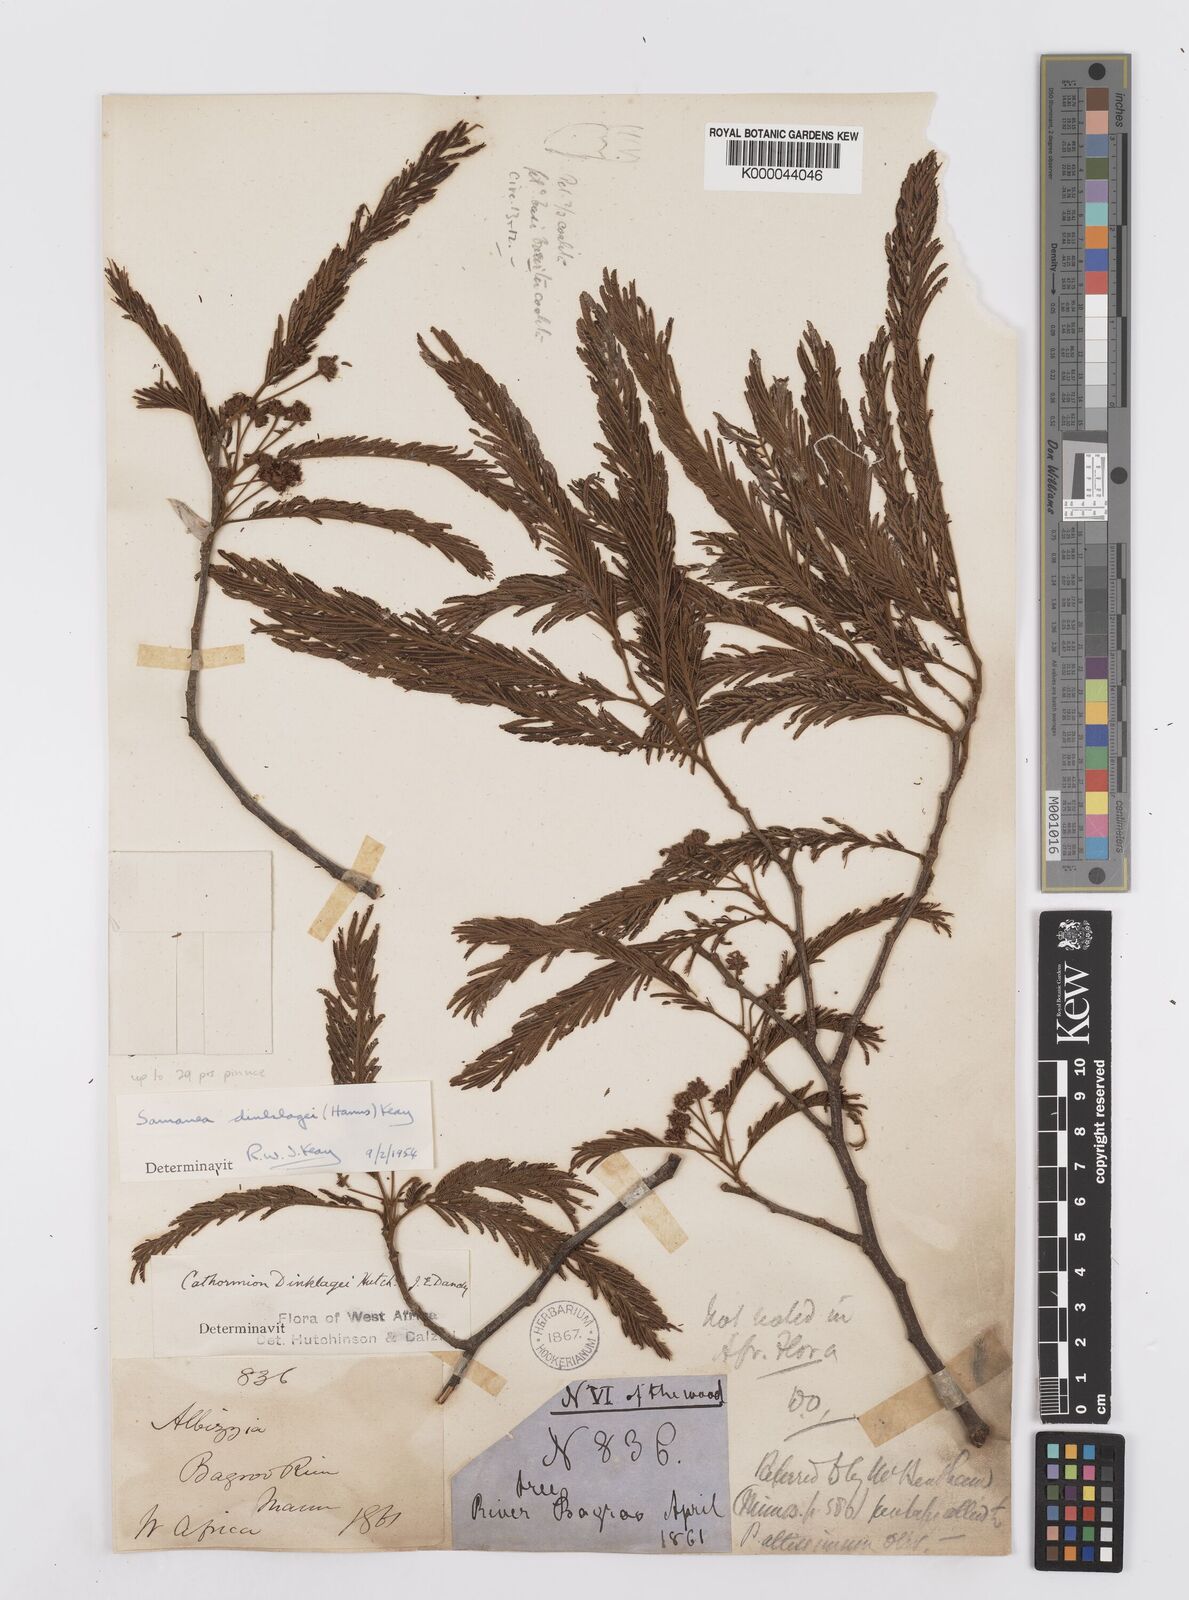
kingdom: Plantae
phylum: Tracheophyta
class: Magnoliopsida
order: Fabales
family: Fabaceae
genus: Albizia
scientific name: Albizia dinklagei
